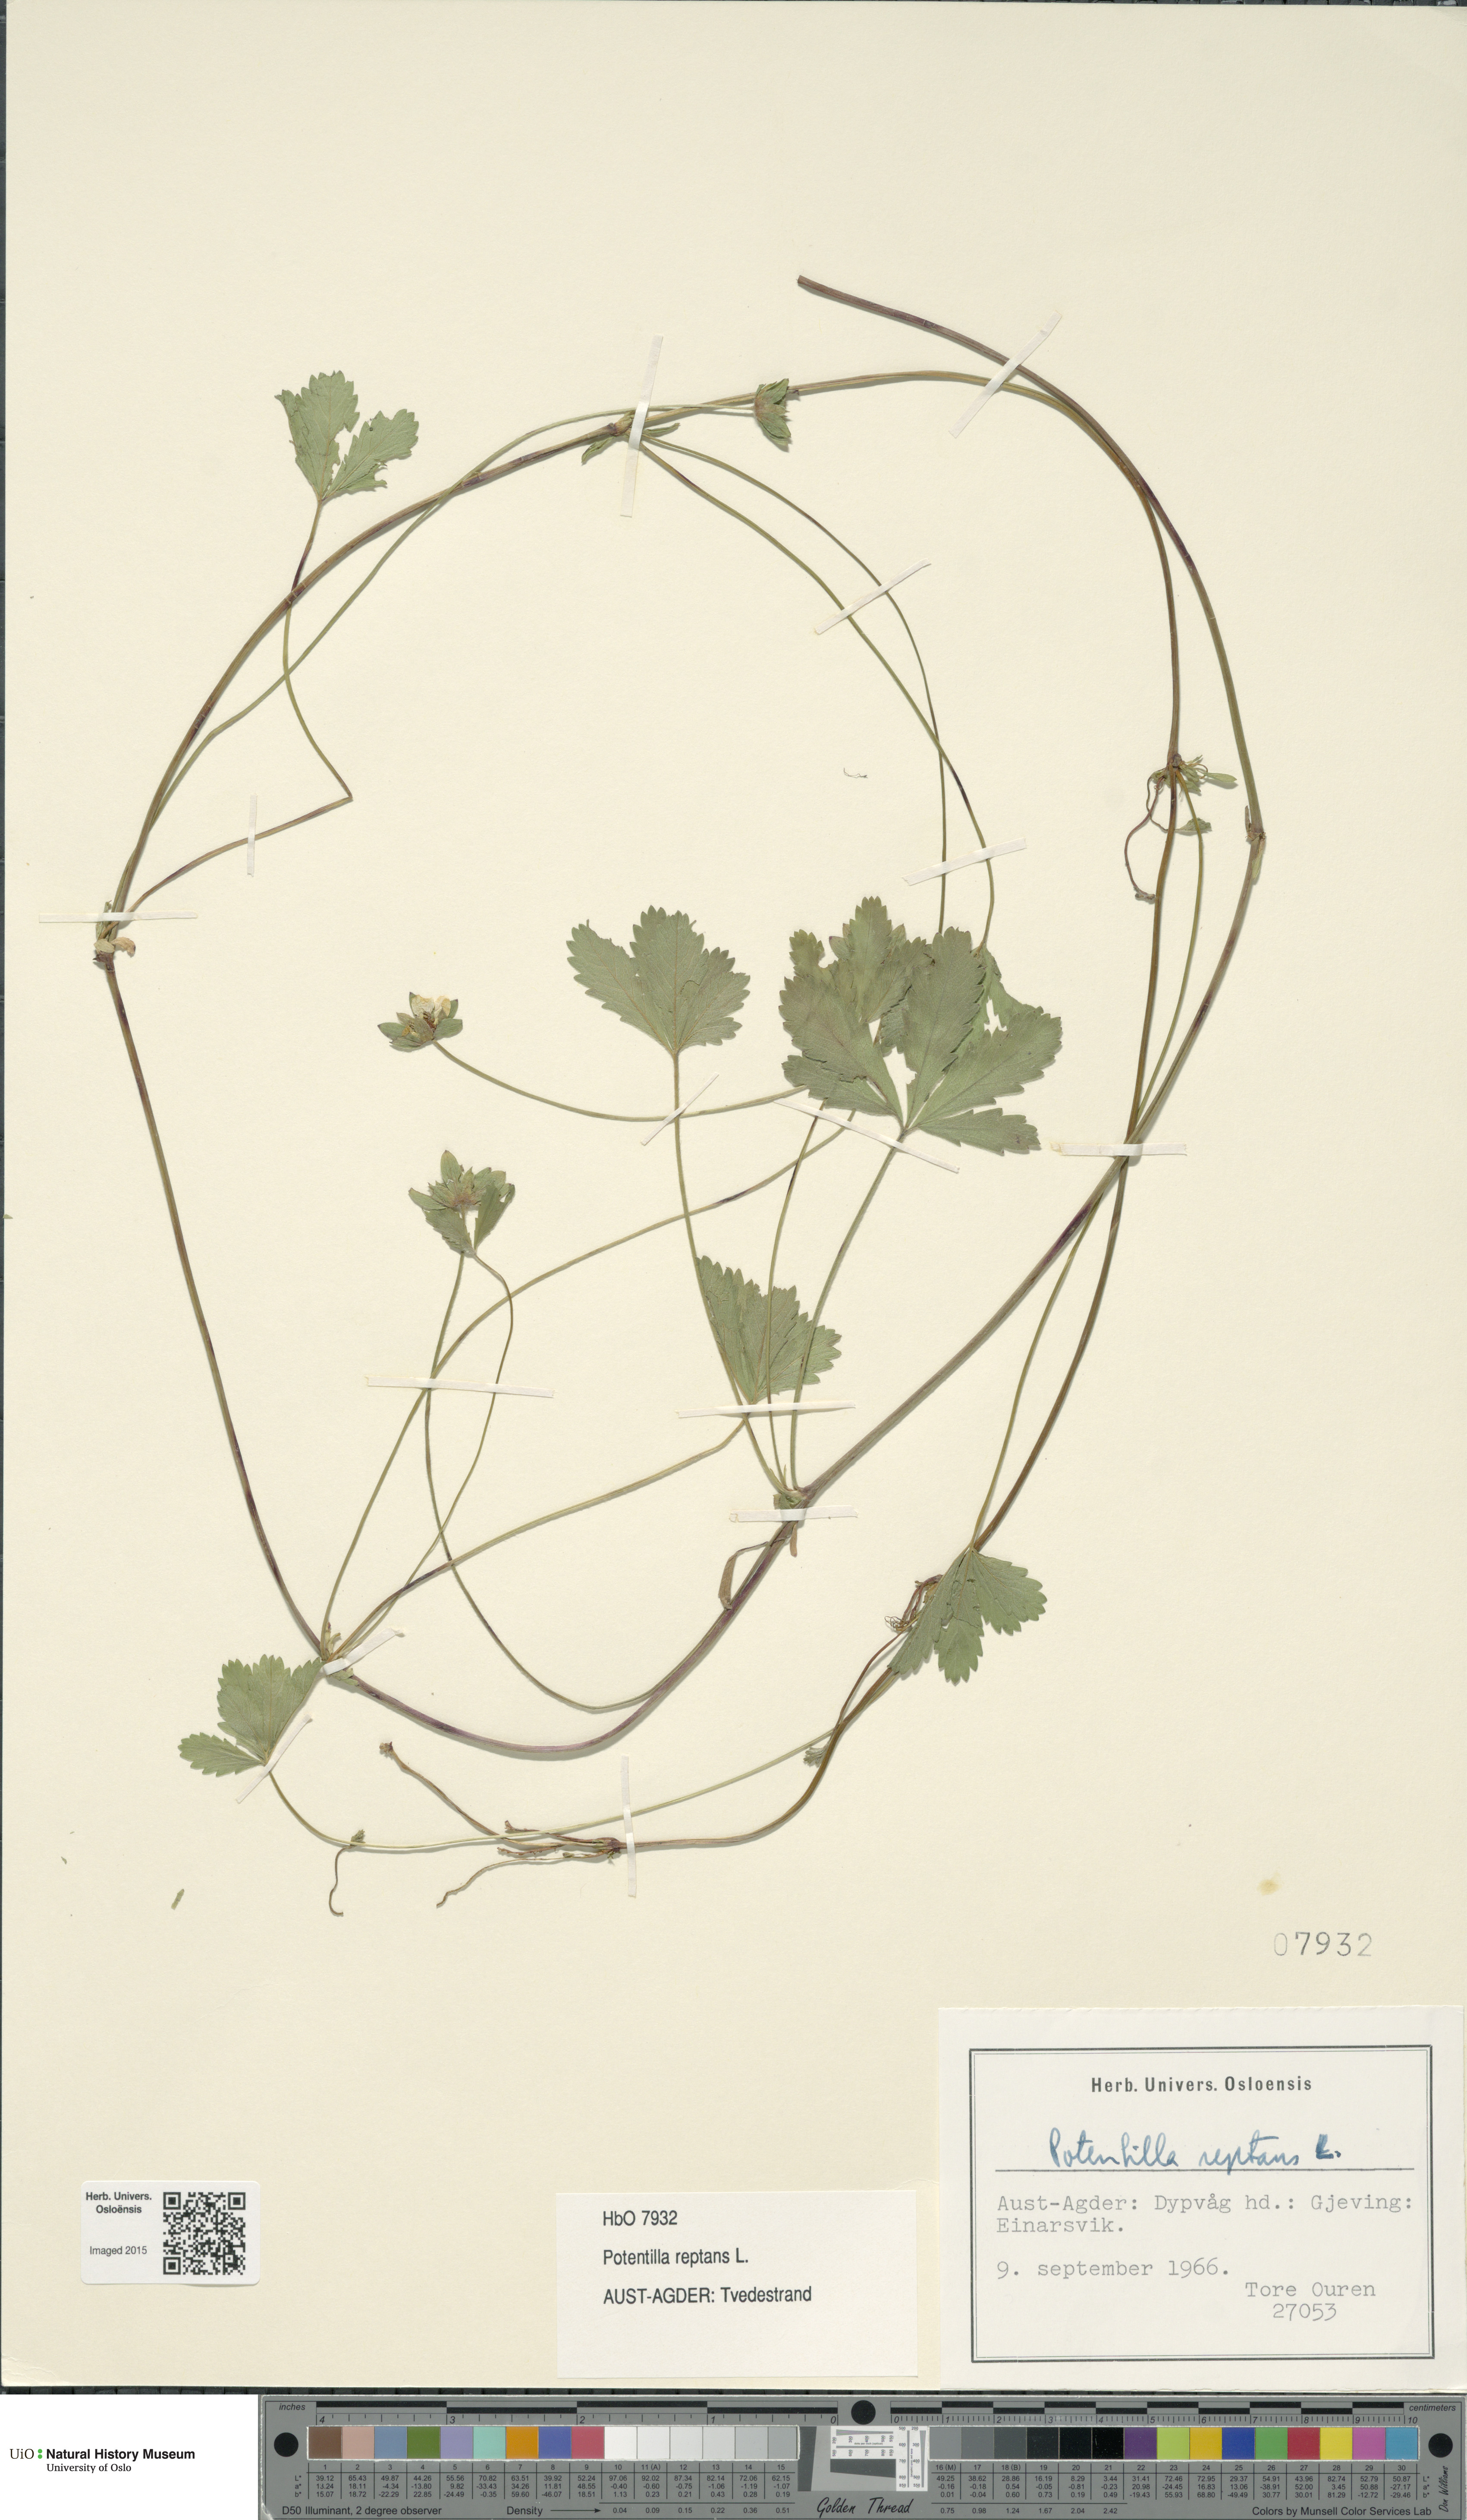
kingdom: Plantae
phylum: Tracheophyta
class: Magnoliopsida
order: Rosales
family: Rosaceae
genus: Potentilla
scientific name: Potentilla reptans
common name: Creeping cinquefoil
